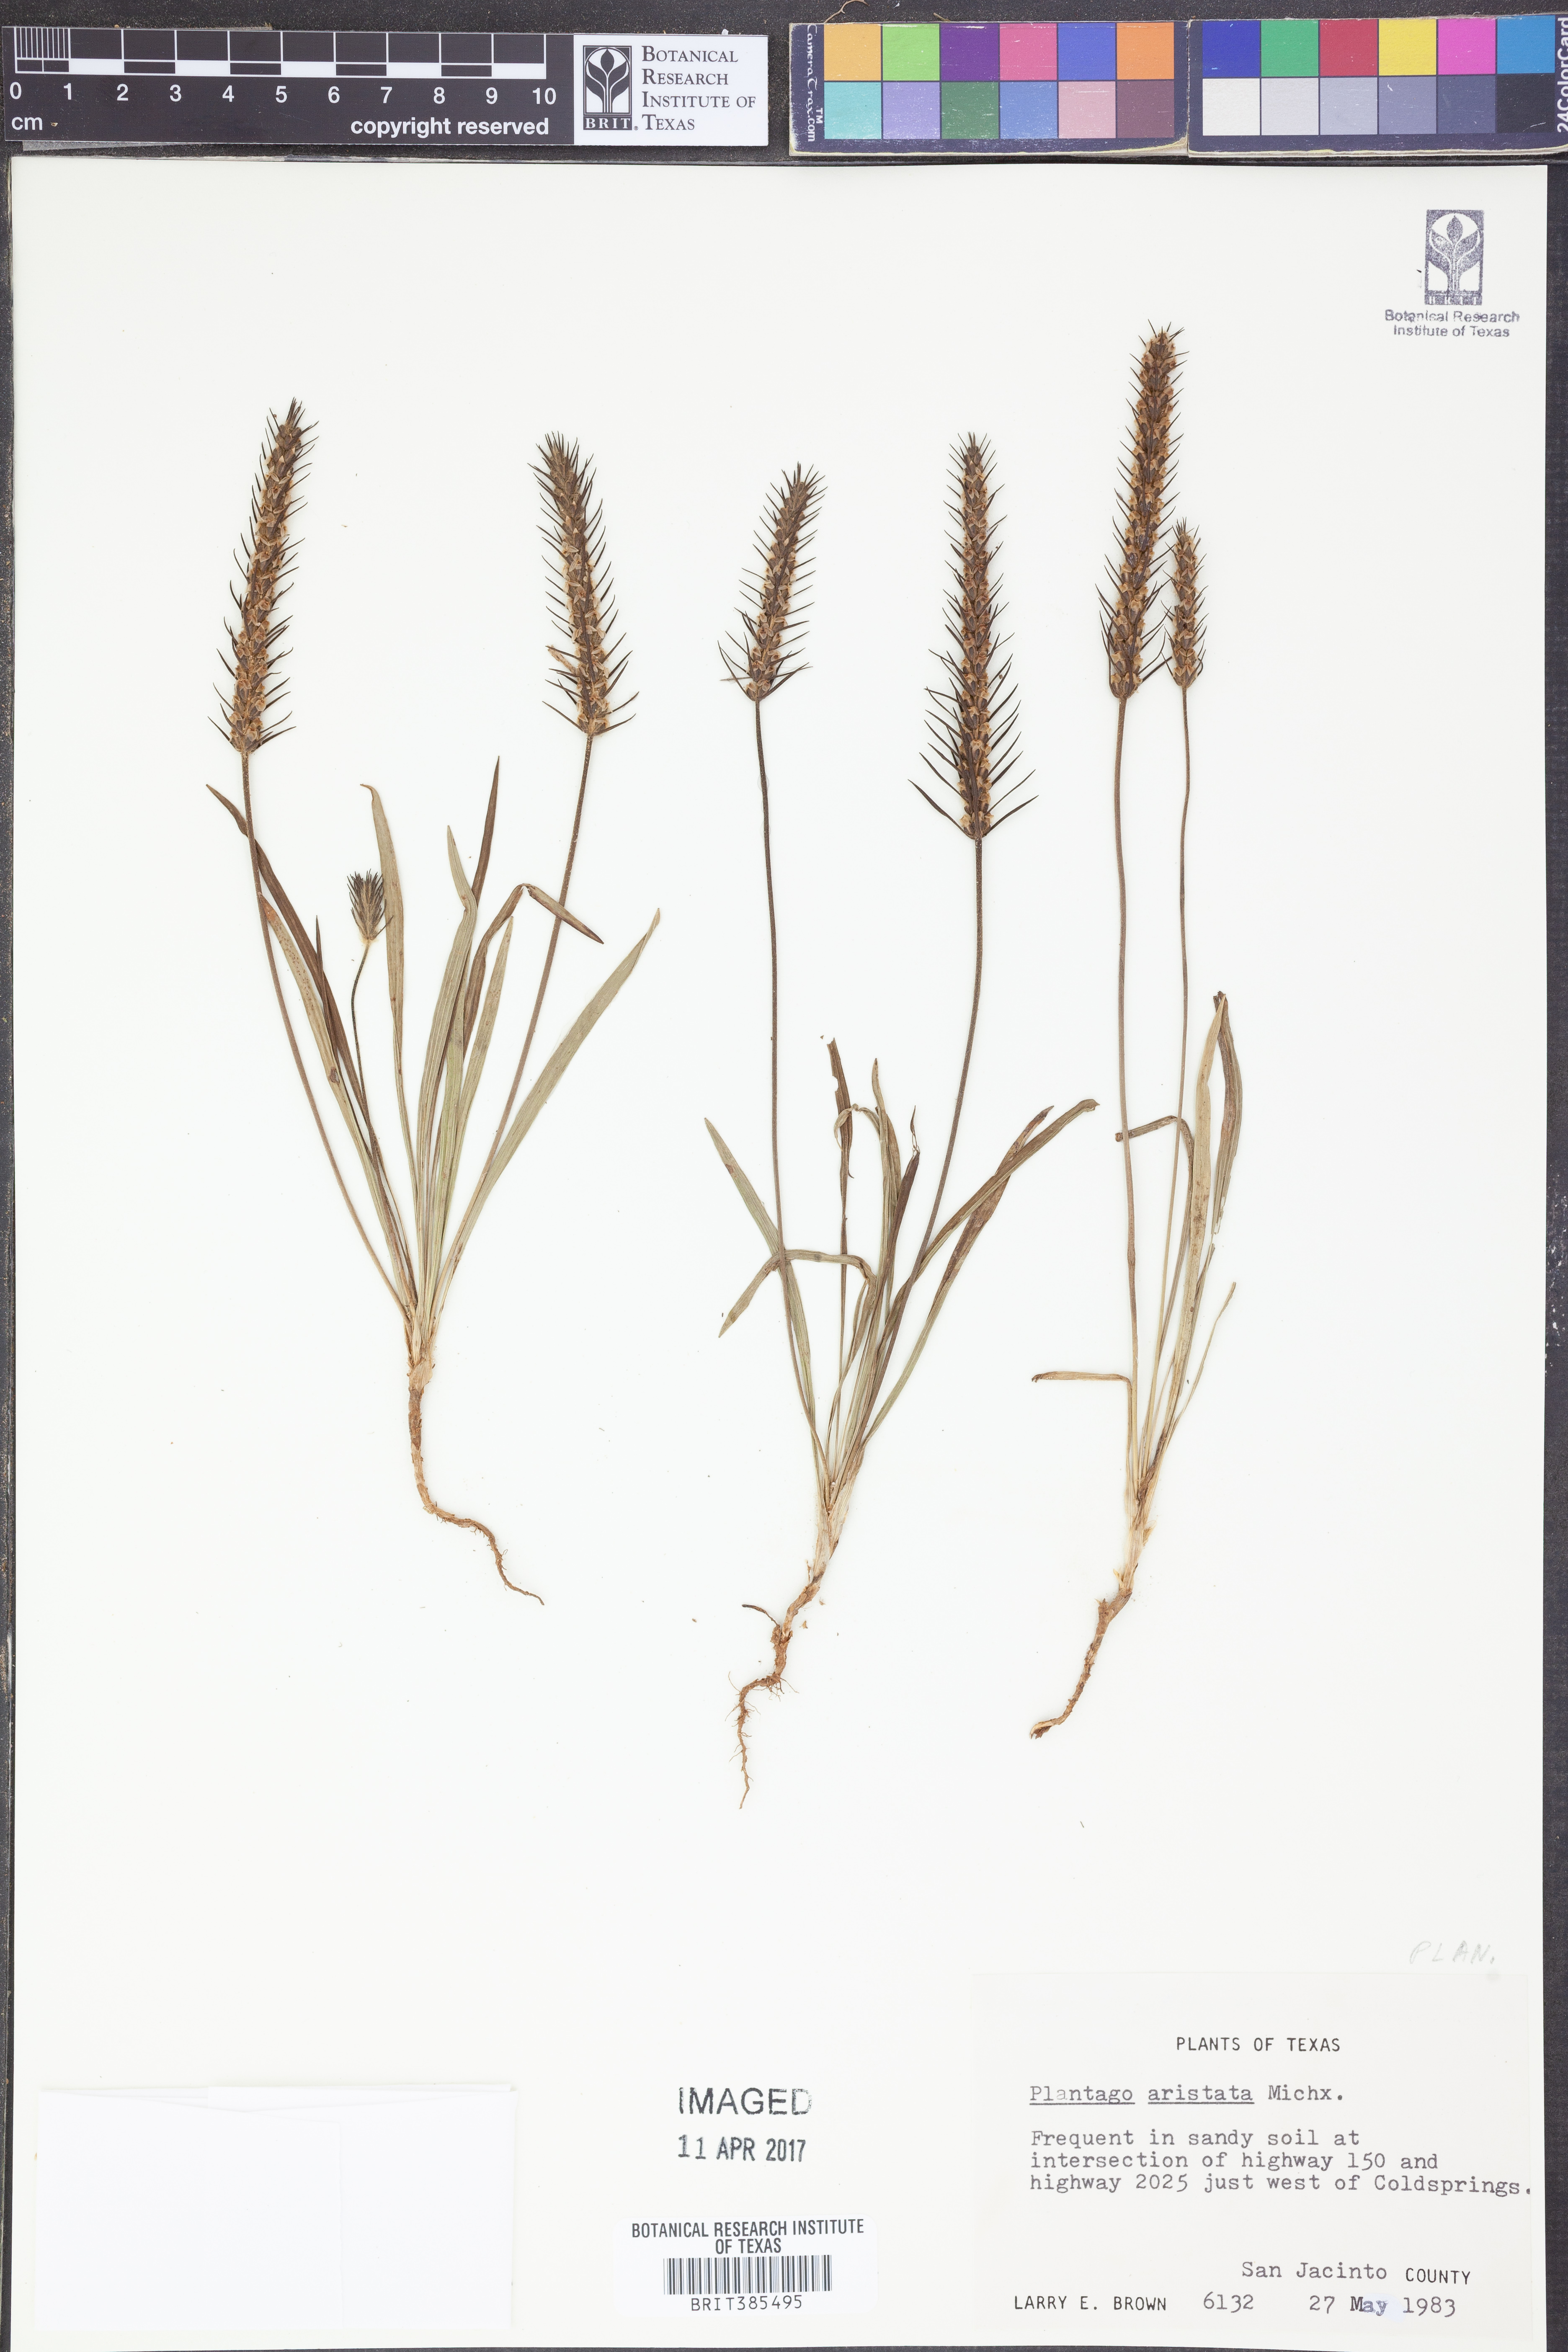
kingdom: Plantae
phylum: Tracheophyta
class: Magnoliopsida
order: Lamiales
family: Plantaginaceae
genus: Plantago
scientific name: Plantago aristata
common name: Bracted plantain
